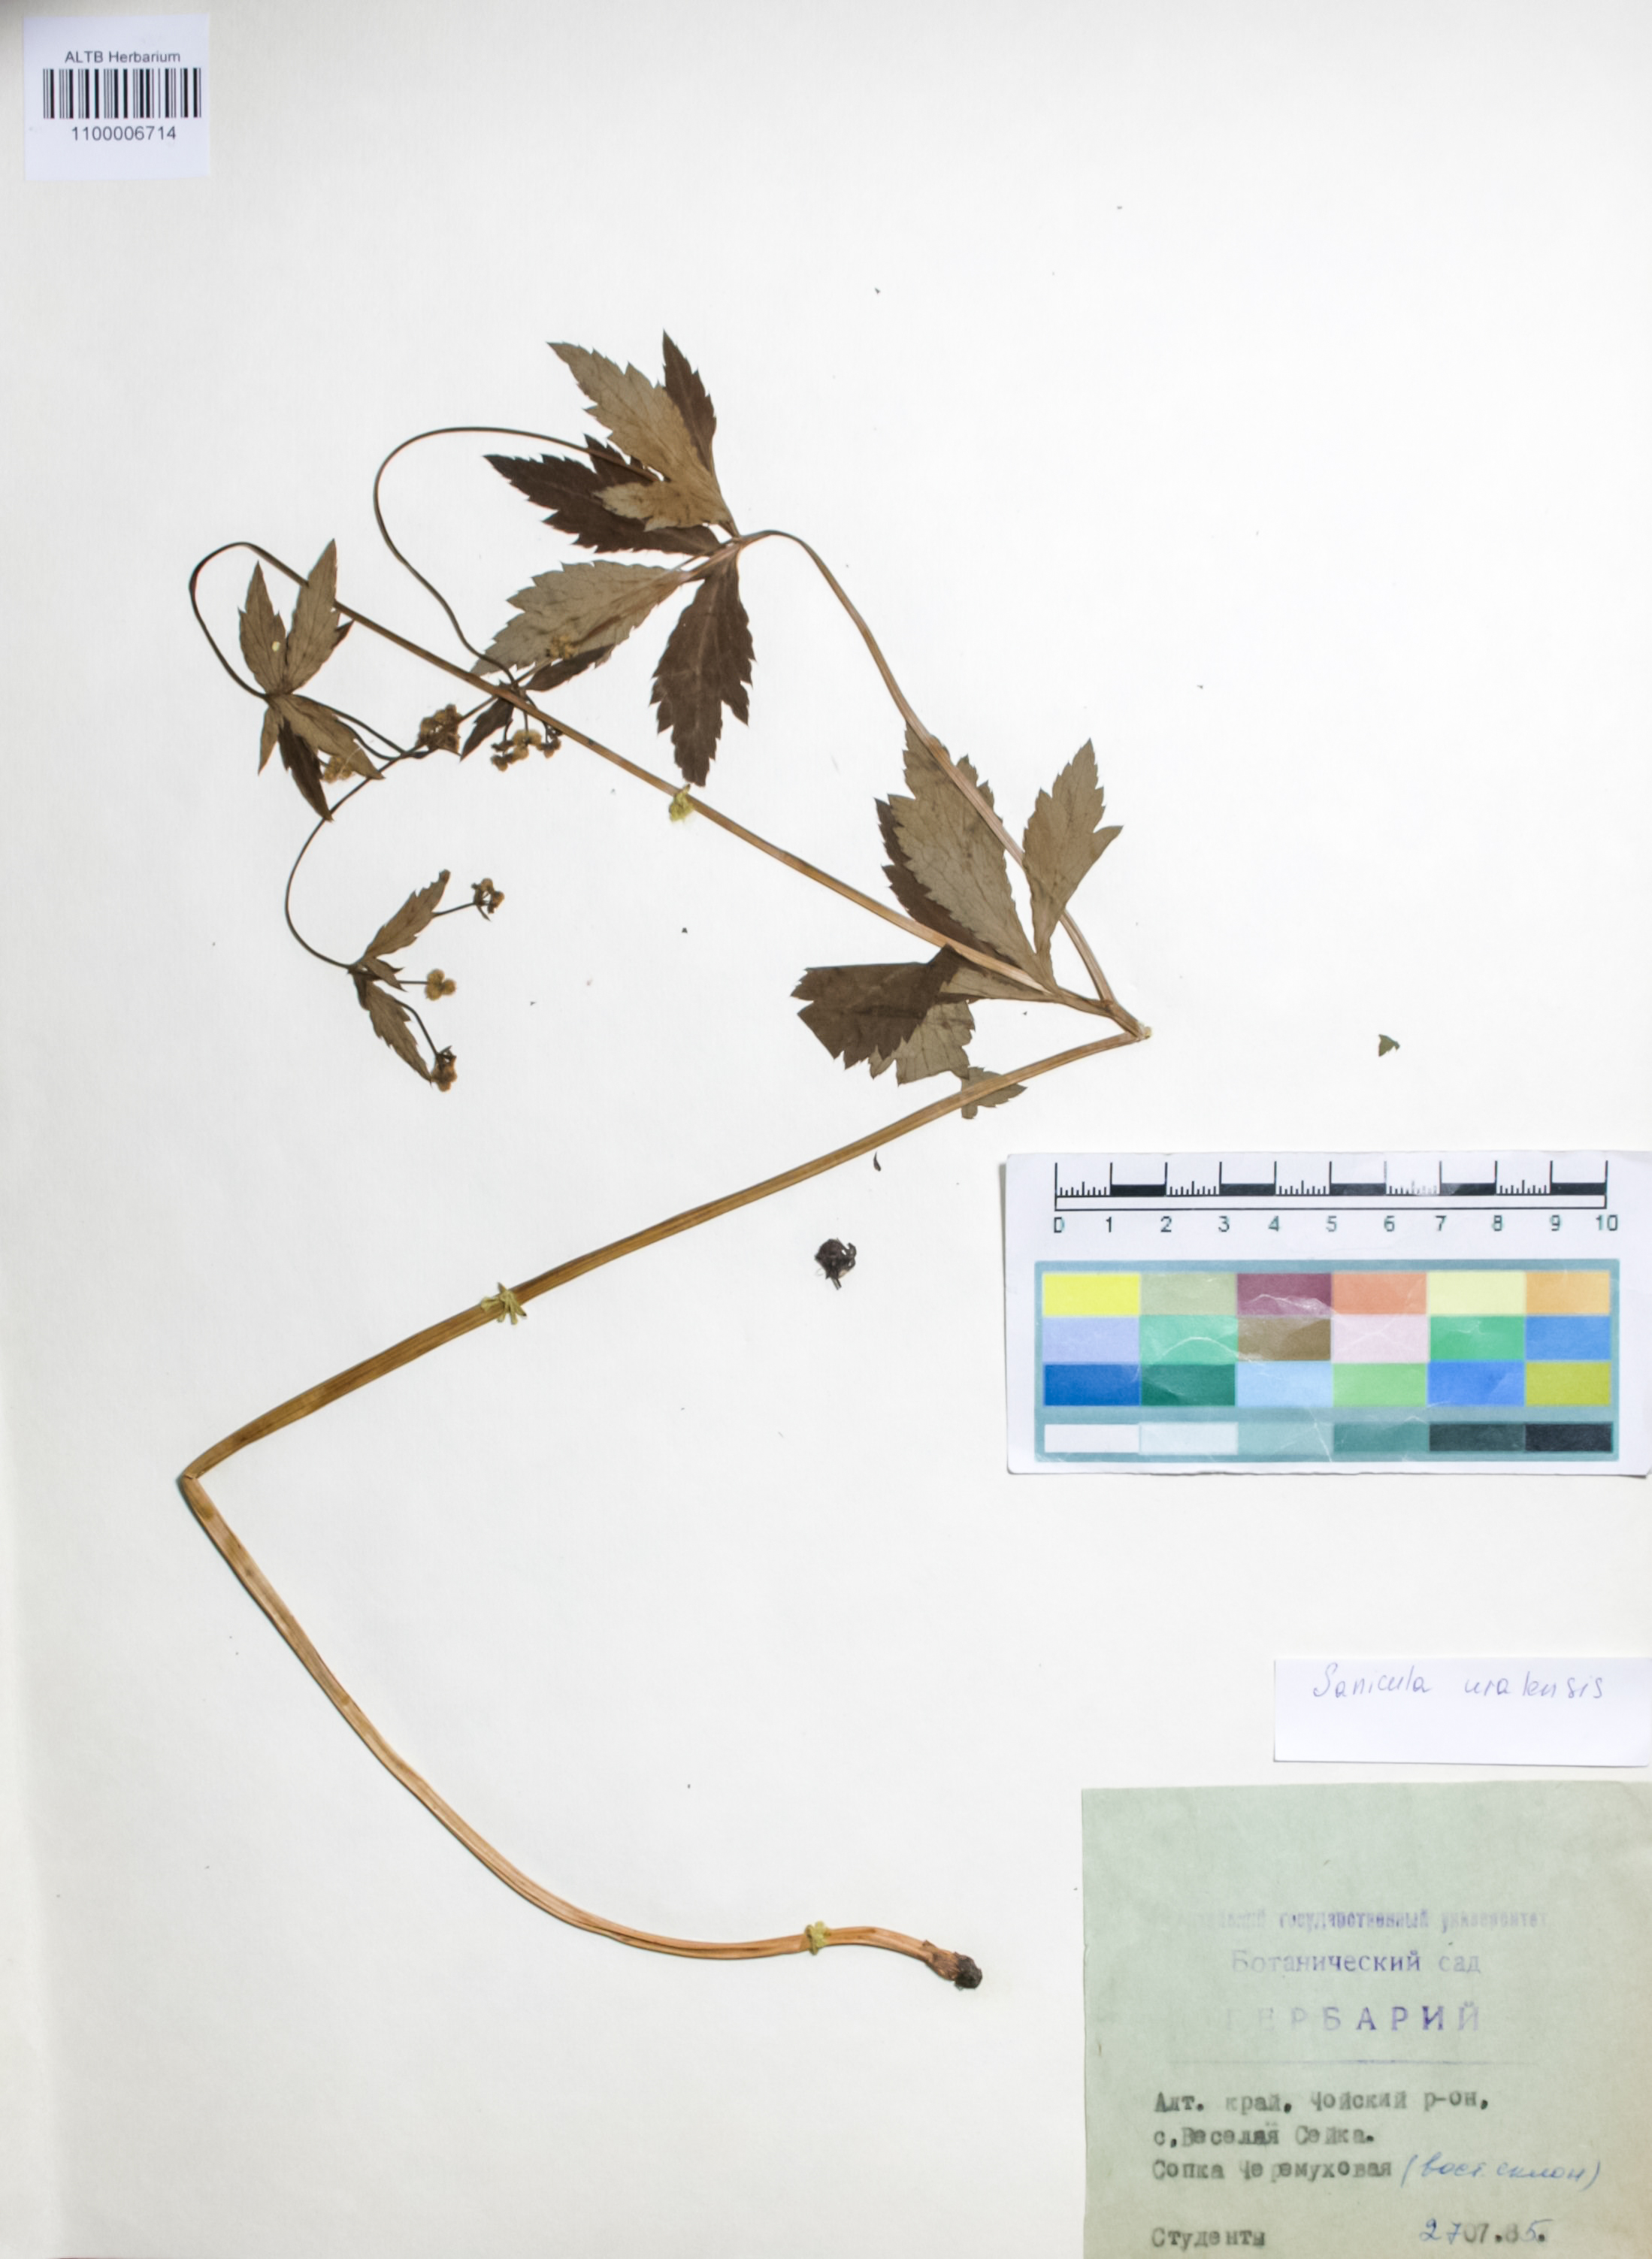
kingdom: Plantae
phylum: Tracheophyta
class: Magnoliopsida
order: Apiales
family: Apiaceae
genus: Sanicula
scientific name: Sanicula giraldii
